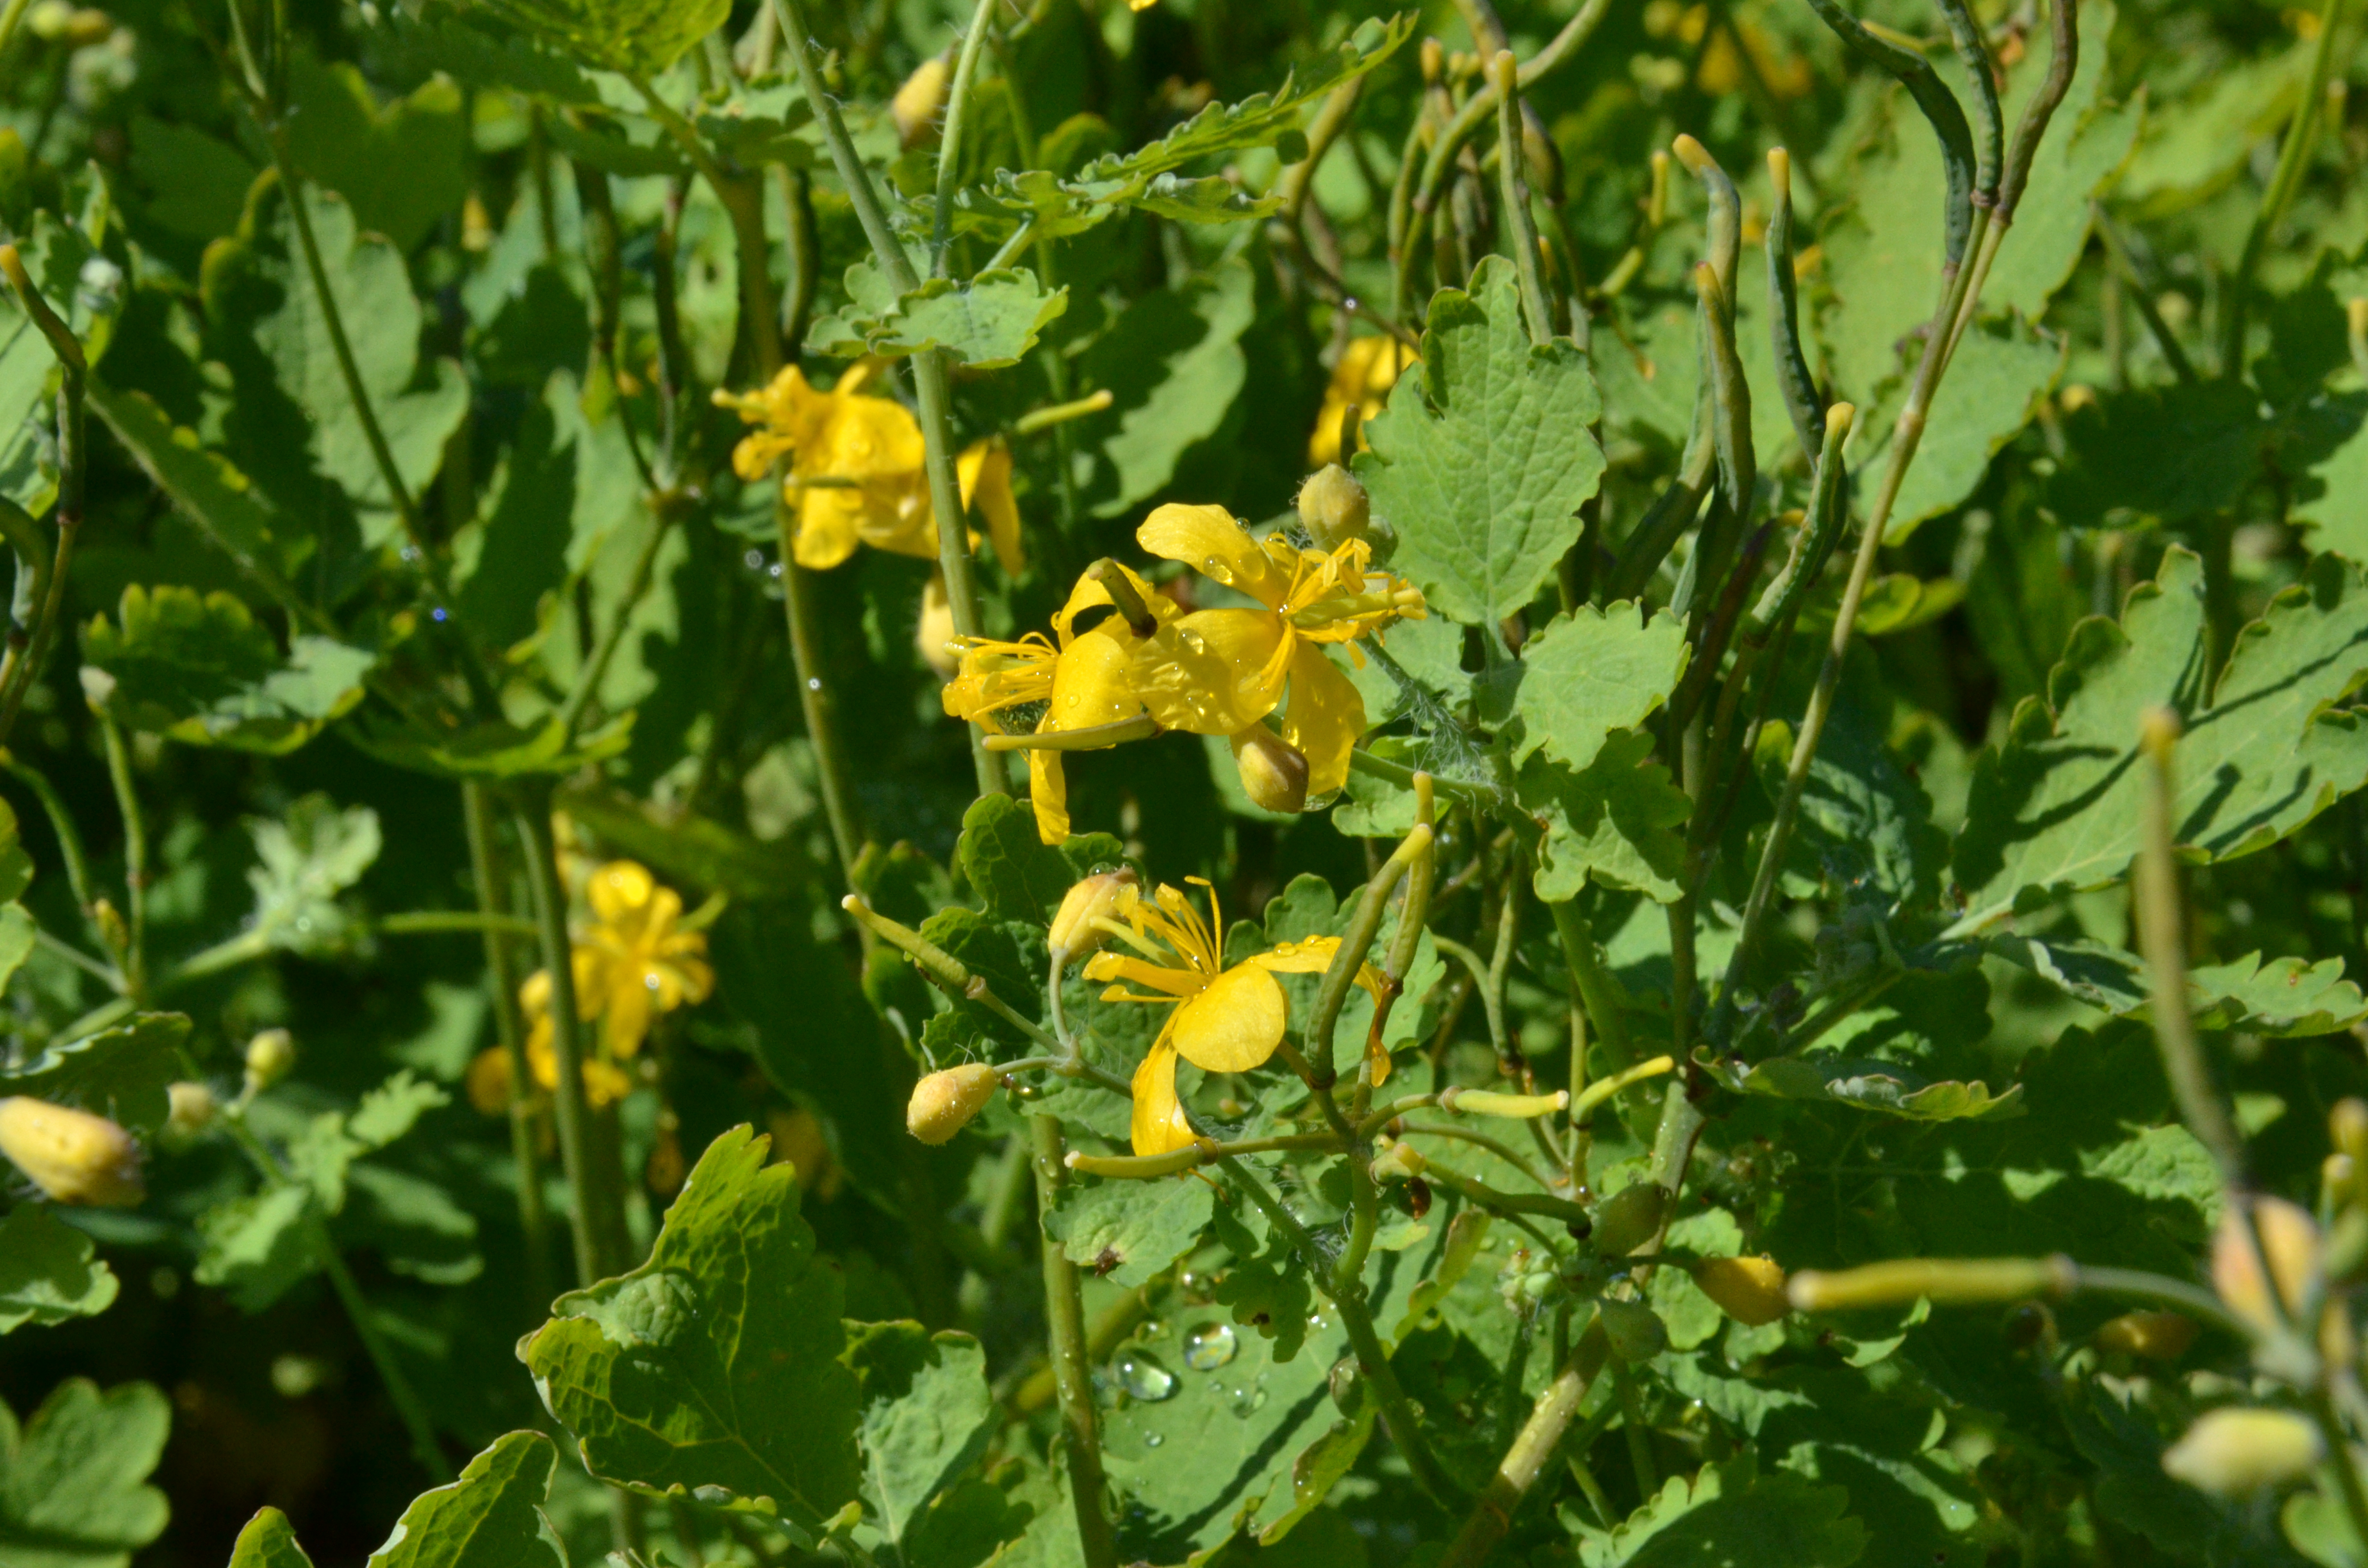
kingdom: Plantae
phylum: Tracheophyta
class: Magnoliopsida
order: Ranunculales
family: Papaveraceae
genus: Chelidonium
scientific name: Chelidonium majus
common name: Greater celandine
